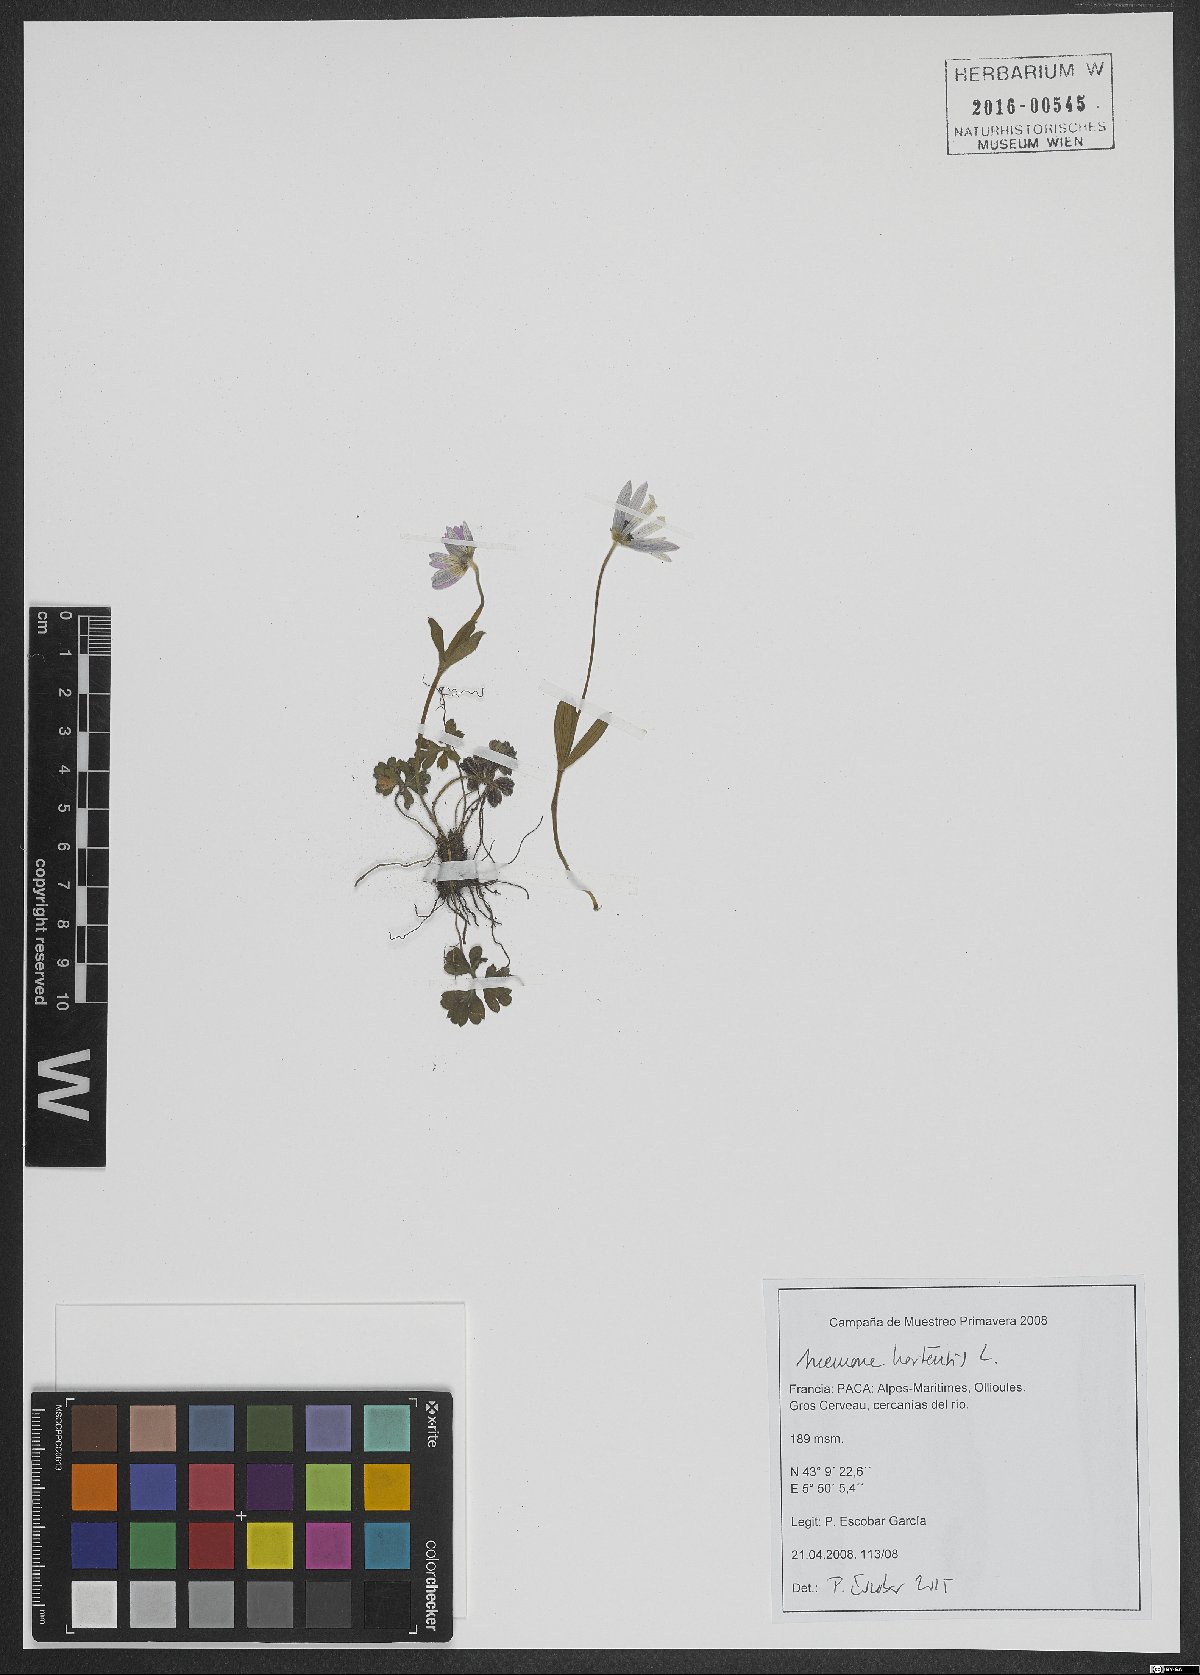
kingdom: Plantae
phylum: Tracheophyta
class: Magnoliopsida
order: Ranunculales
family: Ranunculaceae
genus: Anemone
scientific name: Anemone hortensis
